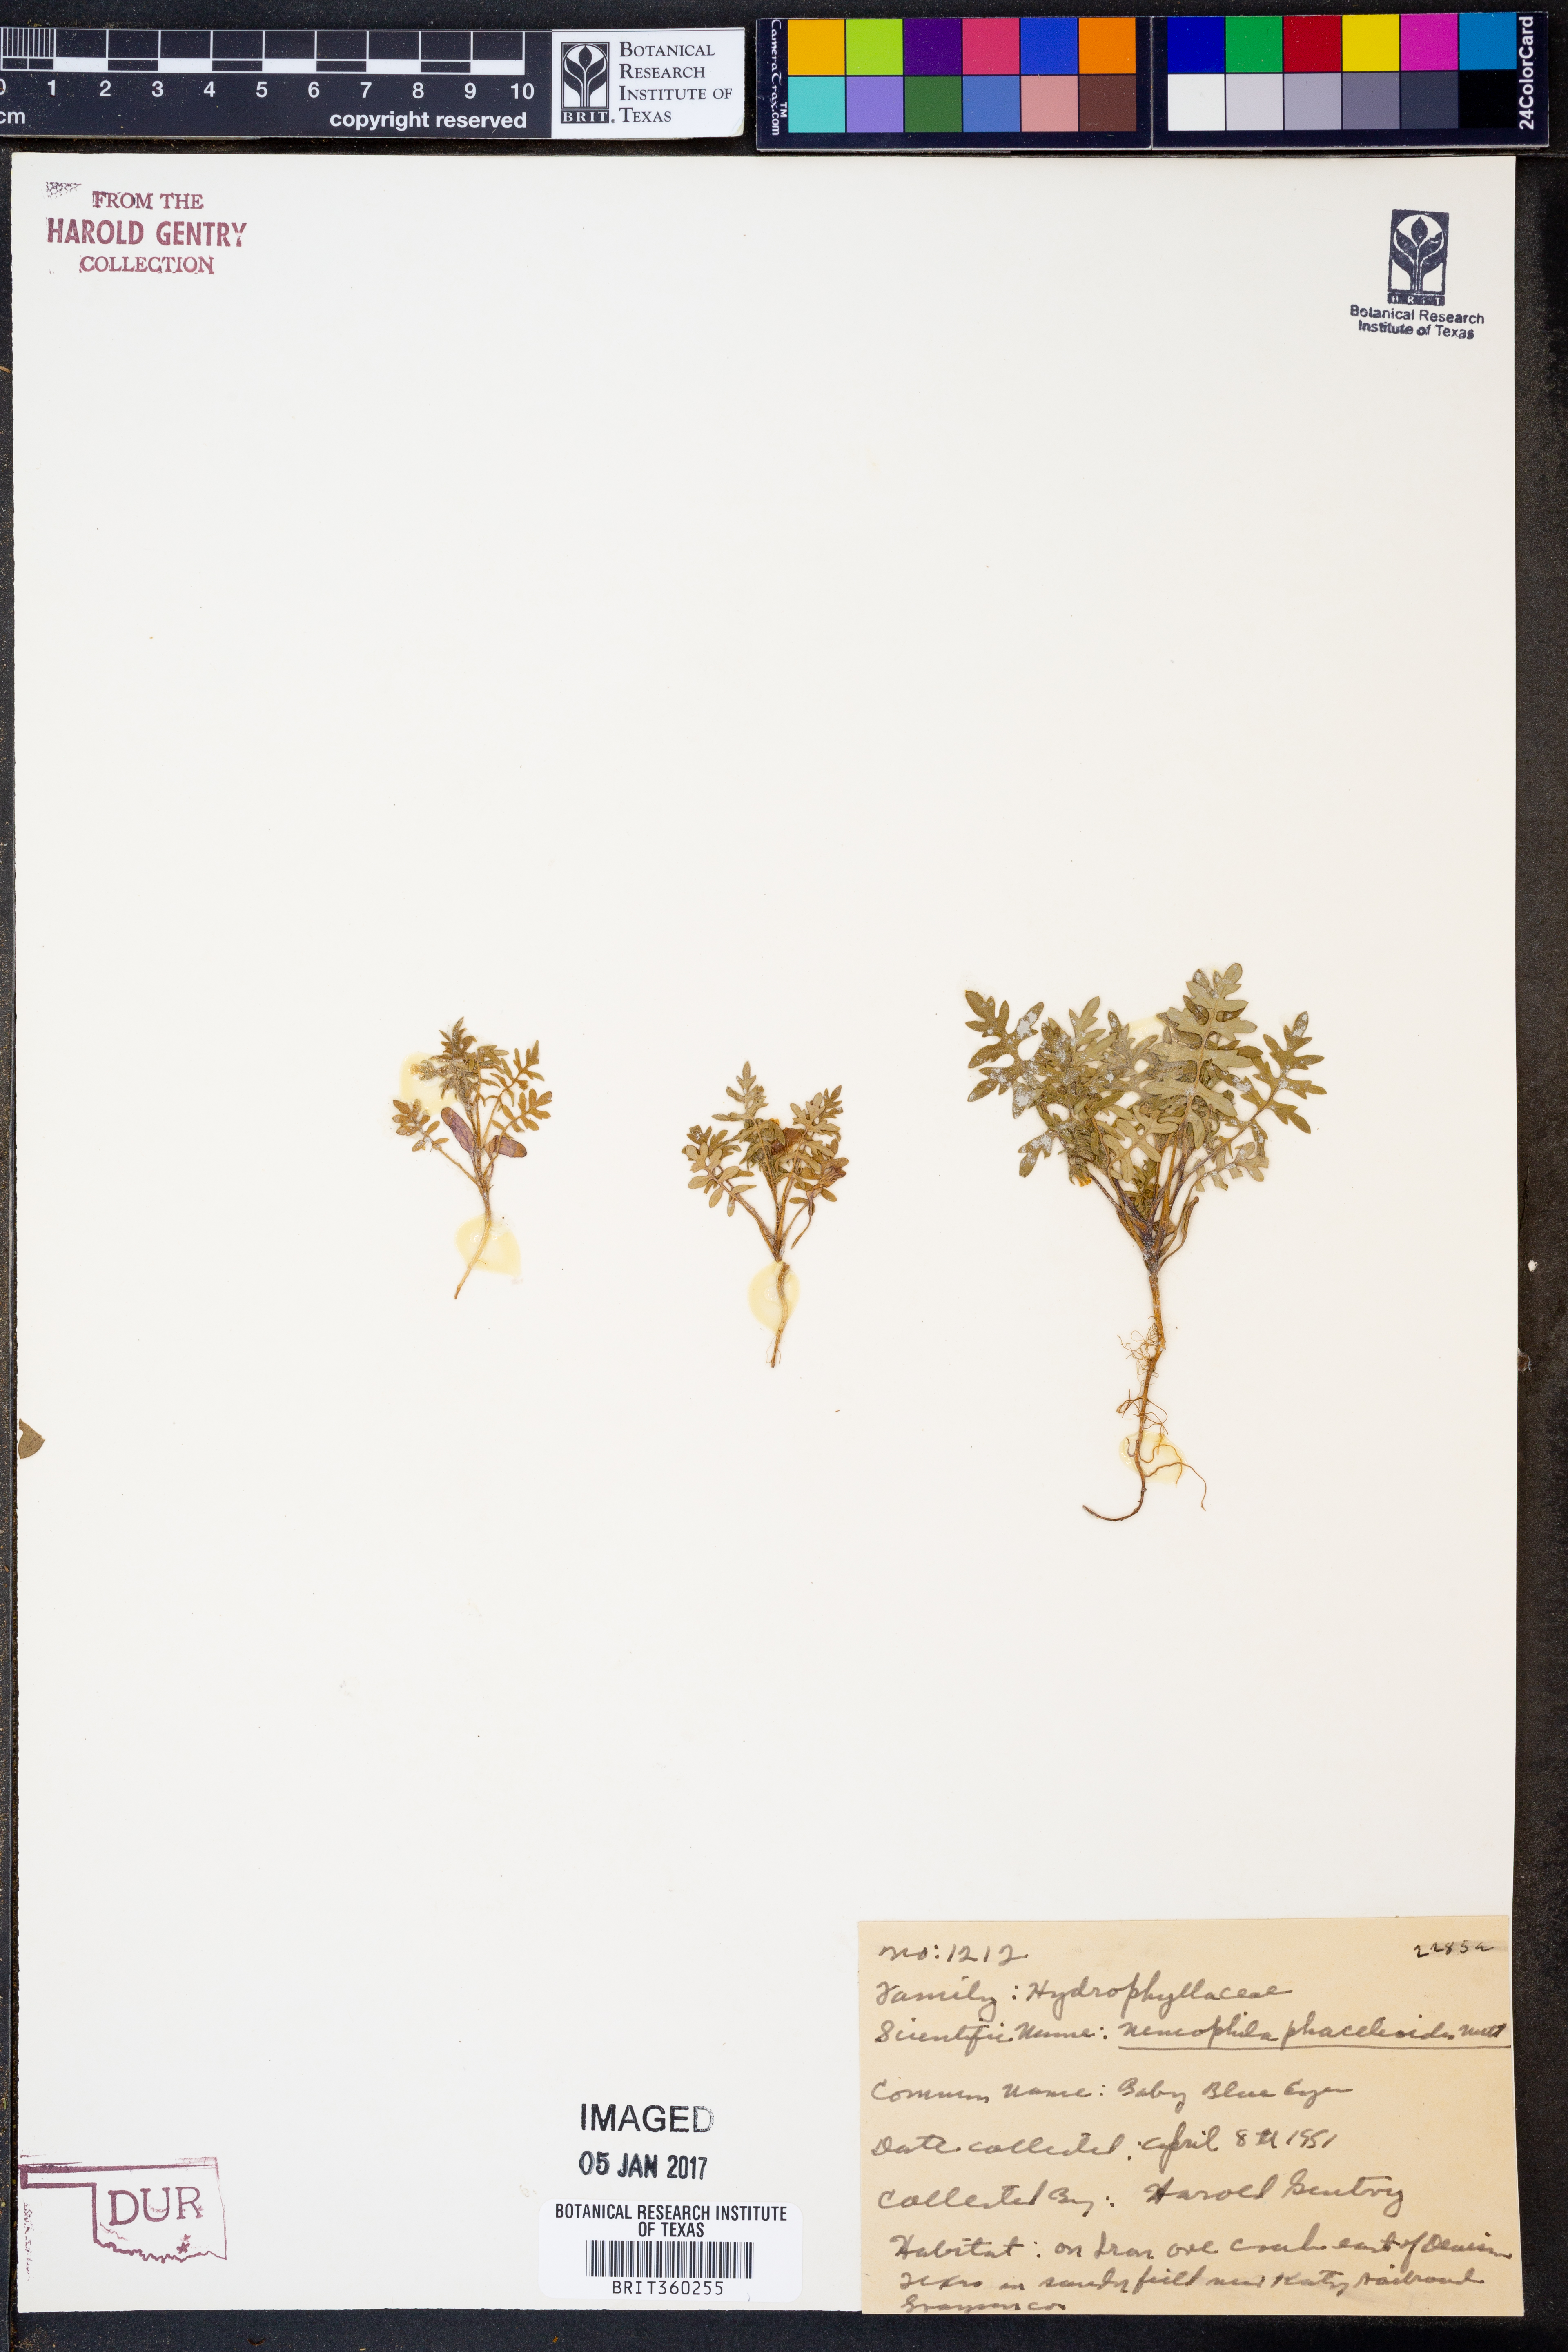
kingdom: Plantae
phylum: Tracheophyta
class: Magnoliopsida
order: Boraginales
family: Hydrophyllaceae
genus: Nemophila
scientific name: Nemophila phacelioides
